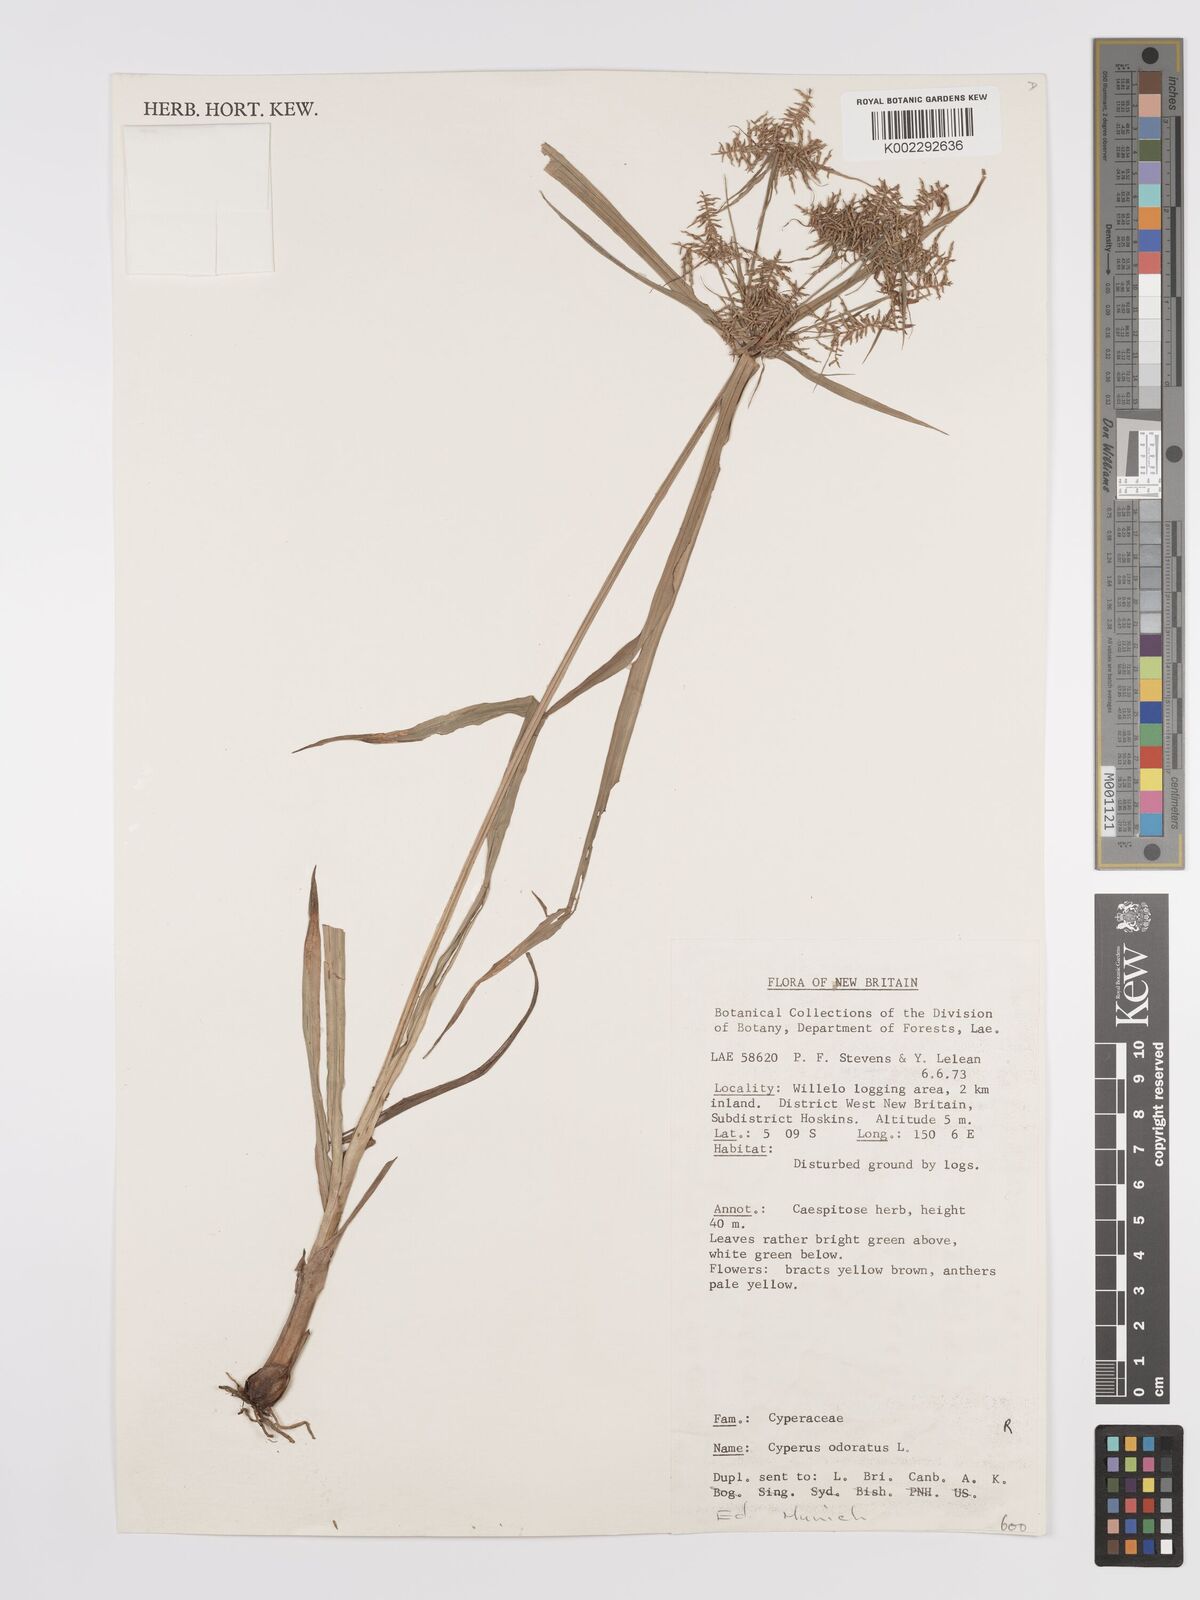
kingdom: Plantae
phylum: Tracheophyta
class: Liliopsida
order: Poales
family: Cyperaceae
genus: Cyperus
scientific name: Cyperus odoratus
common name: Fragrant flatsedge
